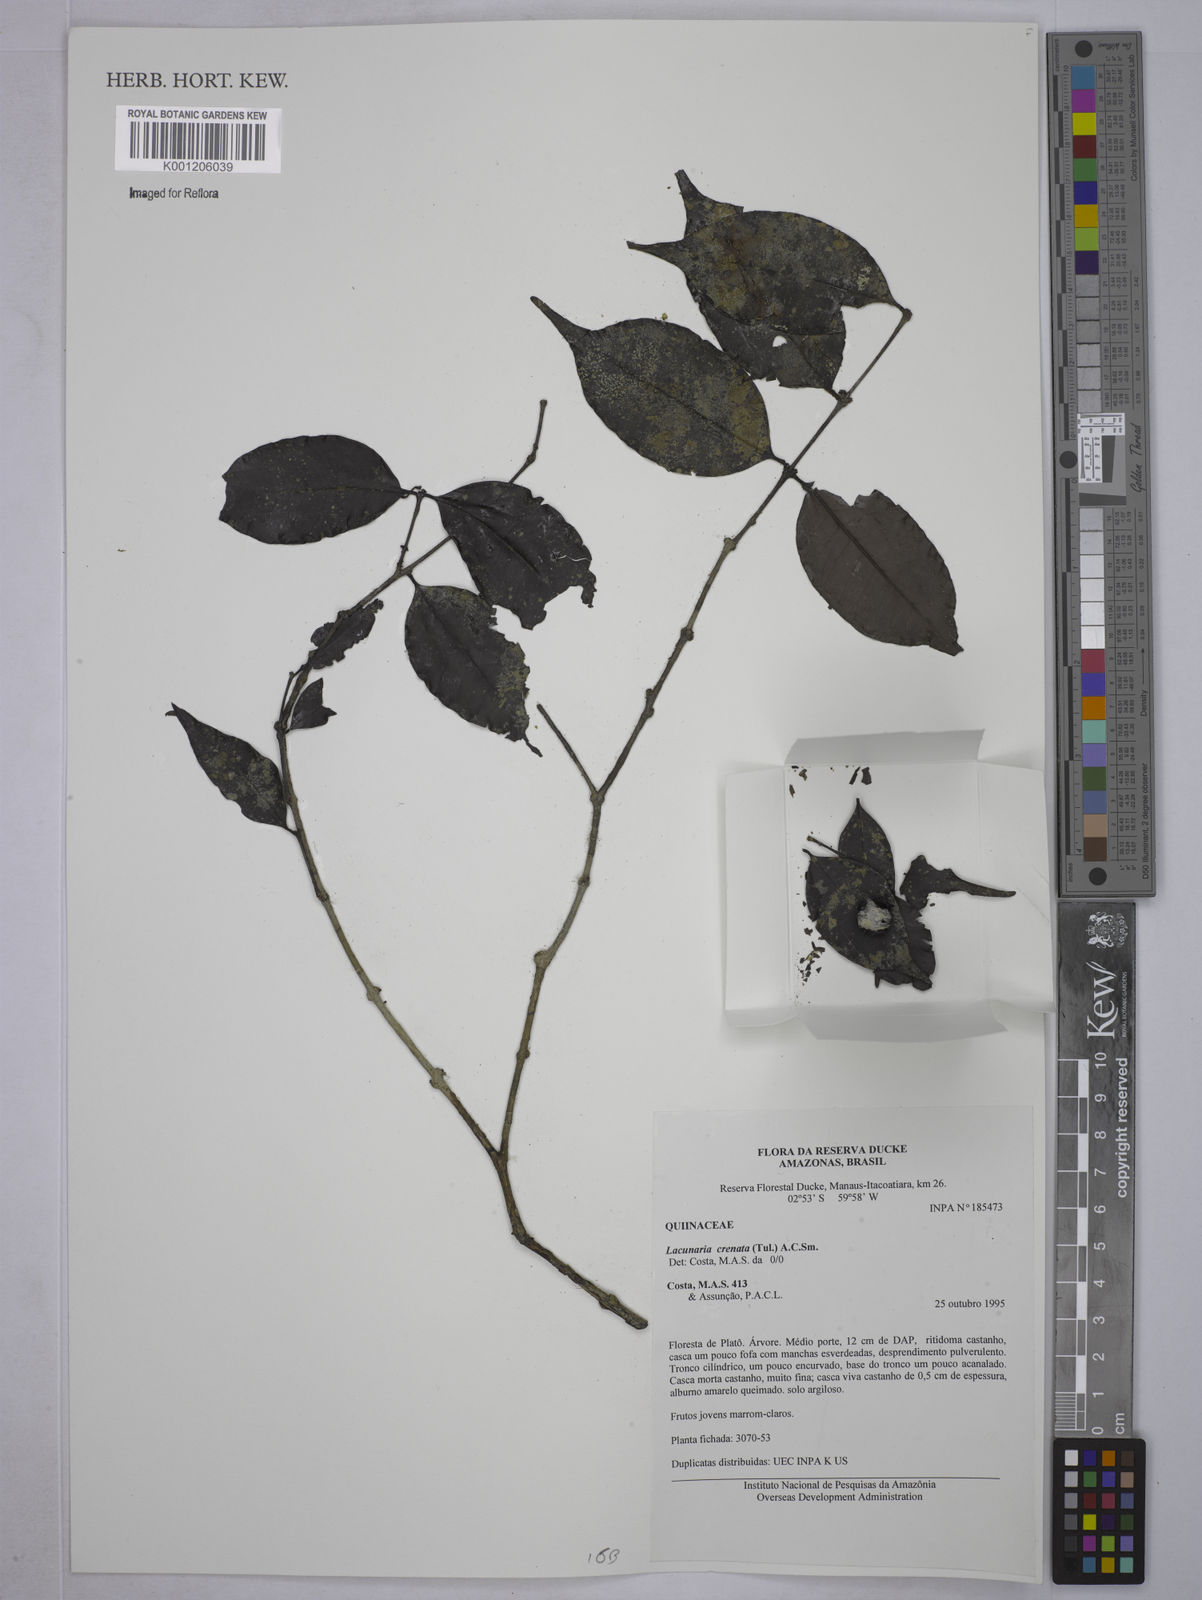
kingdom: Plantae
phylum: Tracheophyta
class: Magnoliopsida
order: Malpighiales
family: Quiinaceae
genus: Lacunaria
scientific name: Lacunaria crenata
